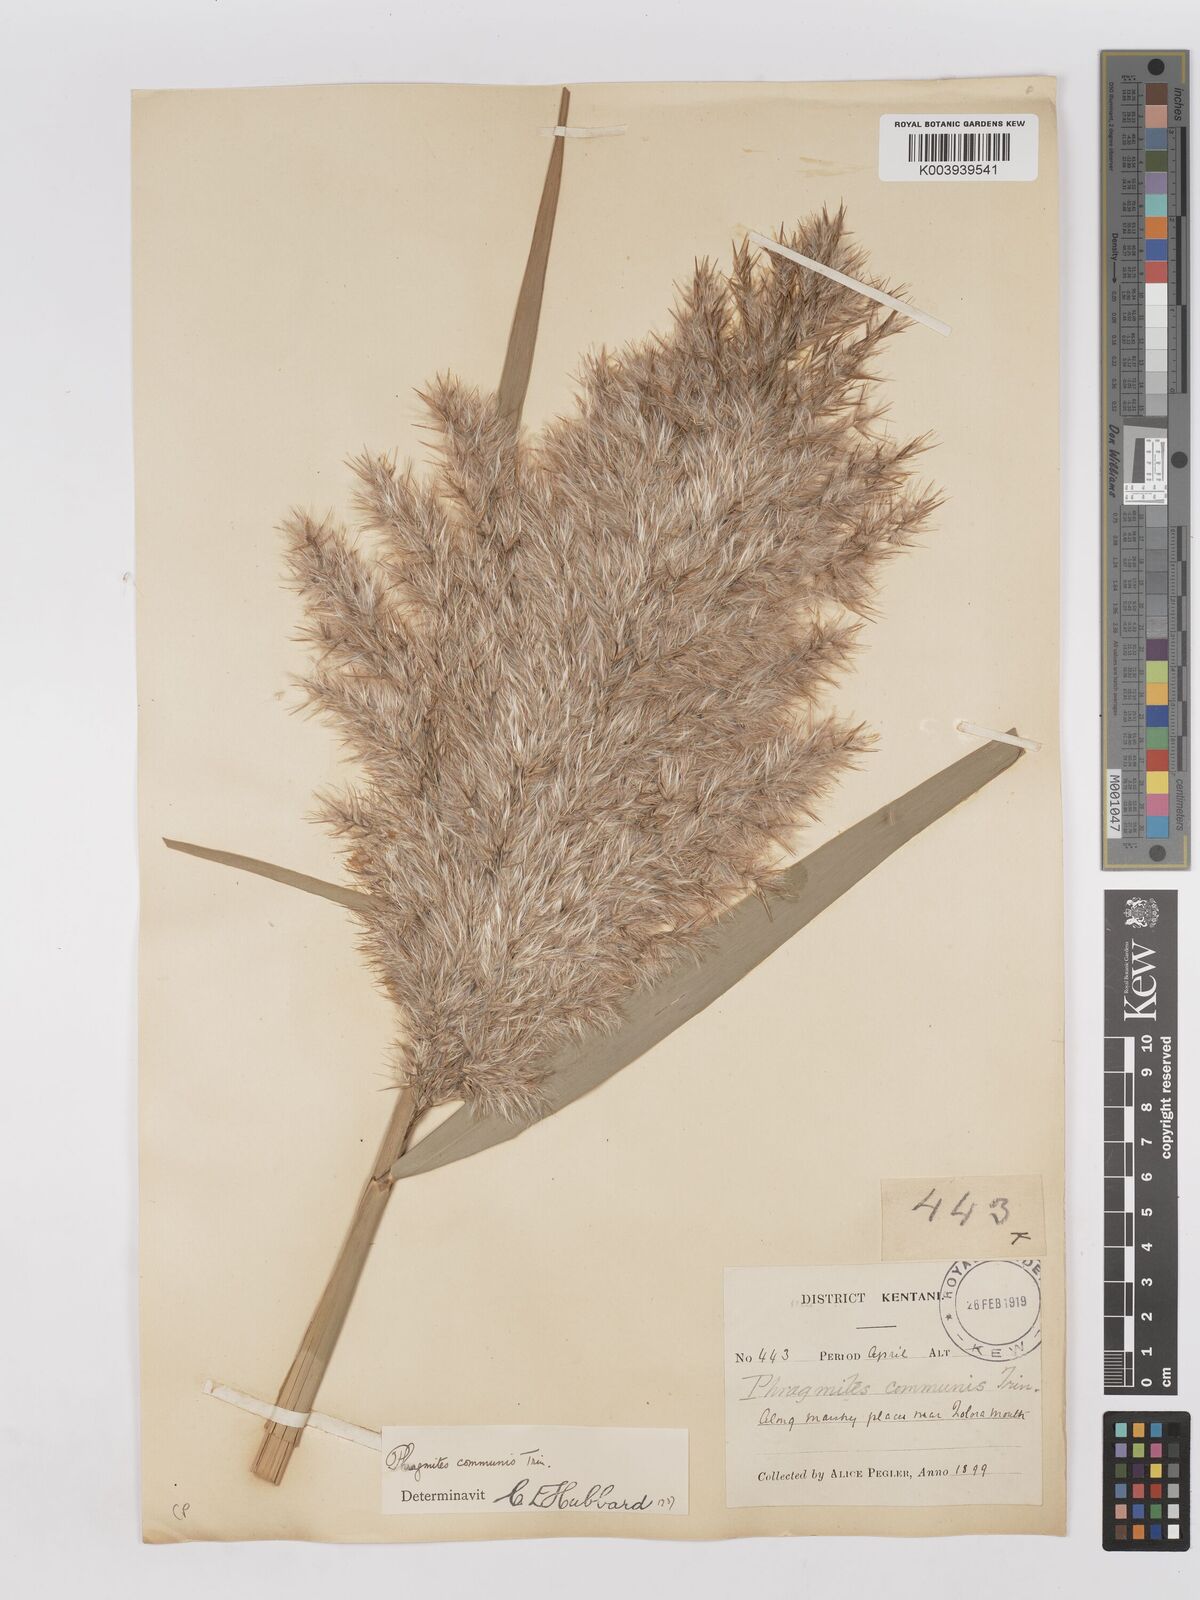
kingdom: Plantae
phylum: Tracheophyta
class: Liliopsida
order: Poales
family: Poaceae
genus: Phragmites
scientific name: Phragmites australis
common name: Common reed
